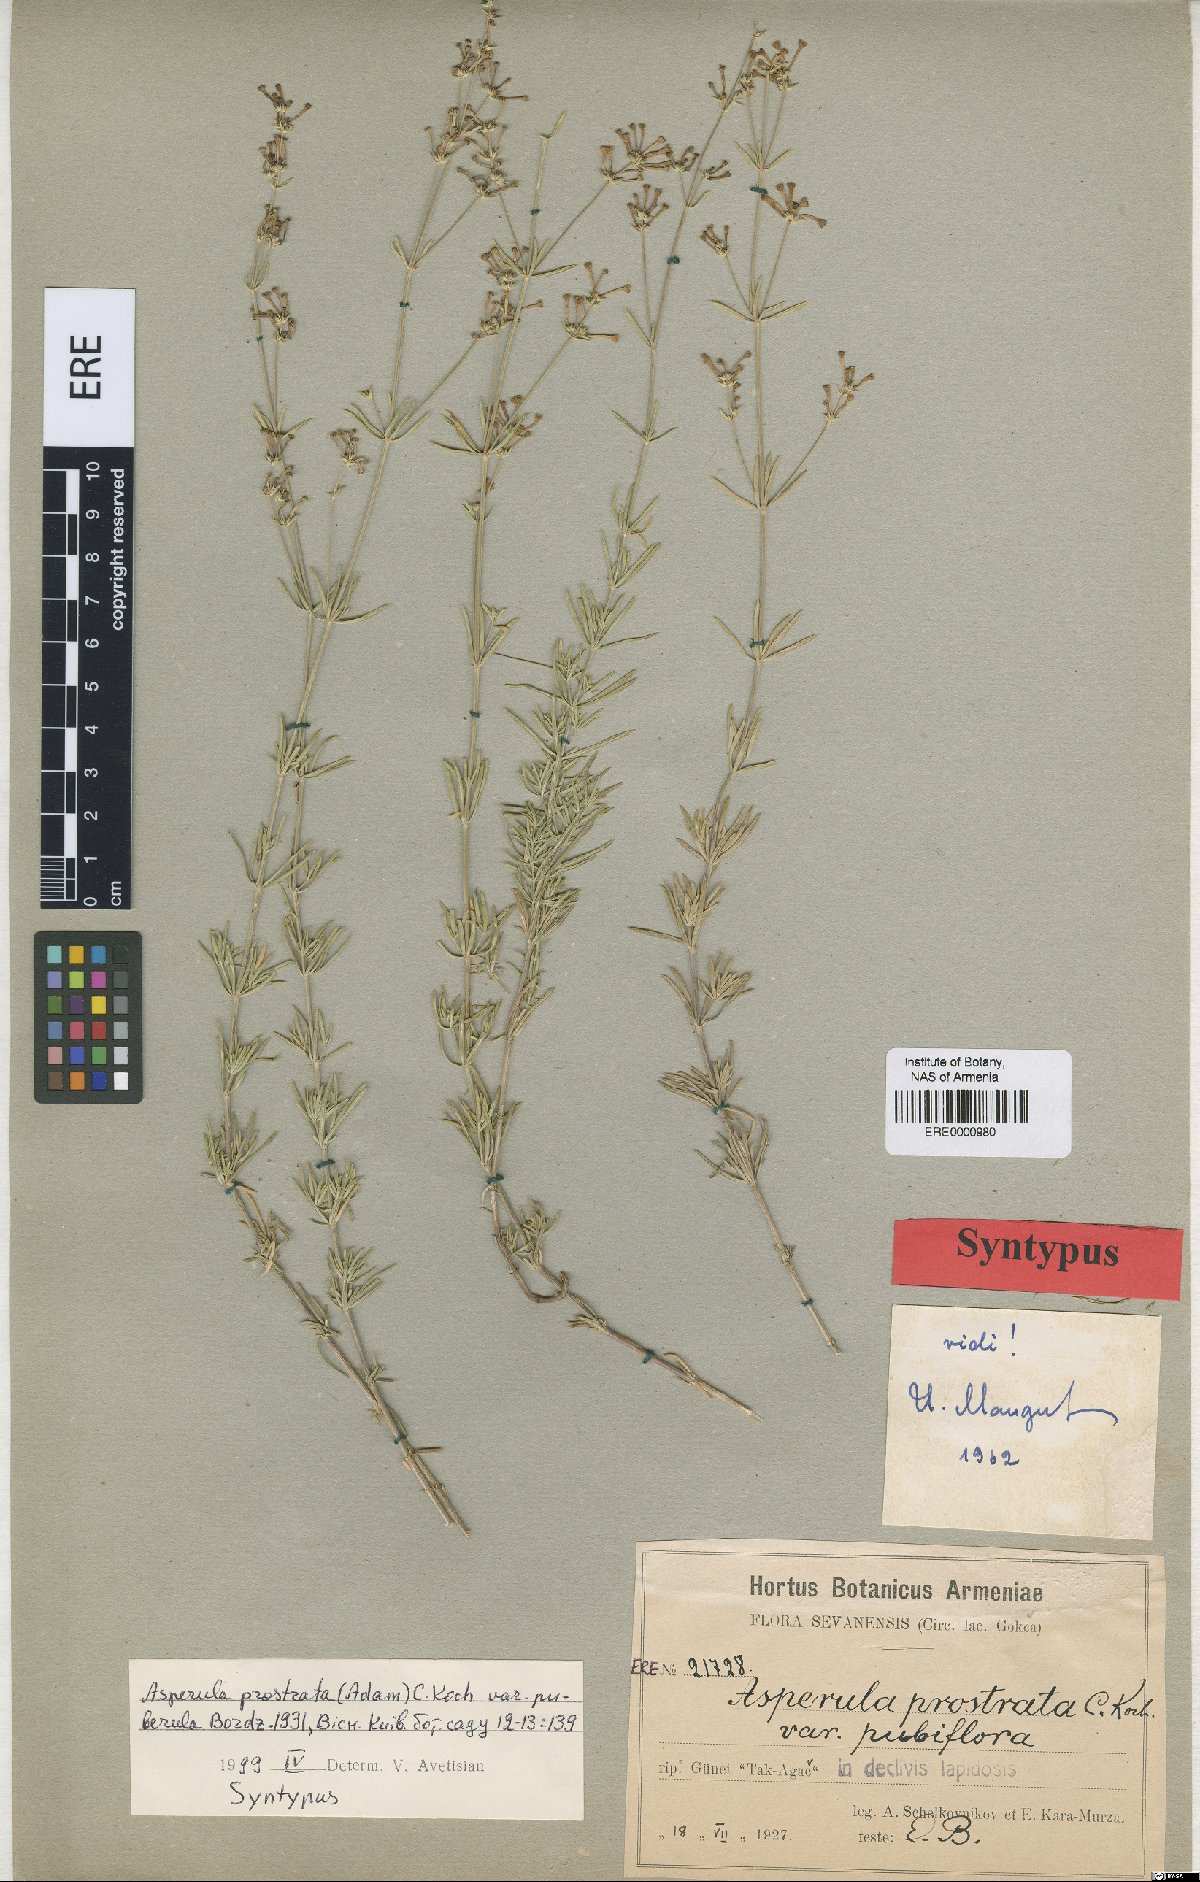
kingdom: Plantae
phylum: Tracheophyta
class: Magnoliopsida
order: Gentianales
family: Rubiaceae
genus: Asperula
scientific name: Asperula prostrata
